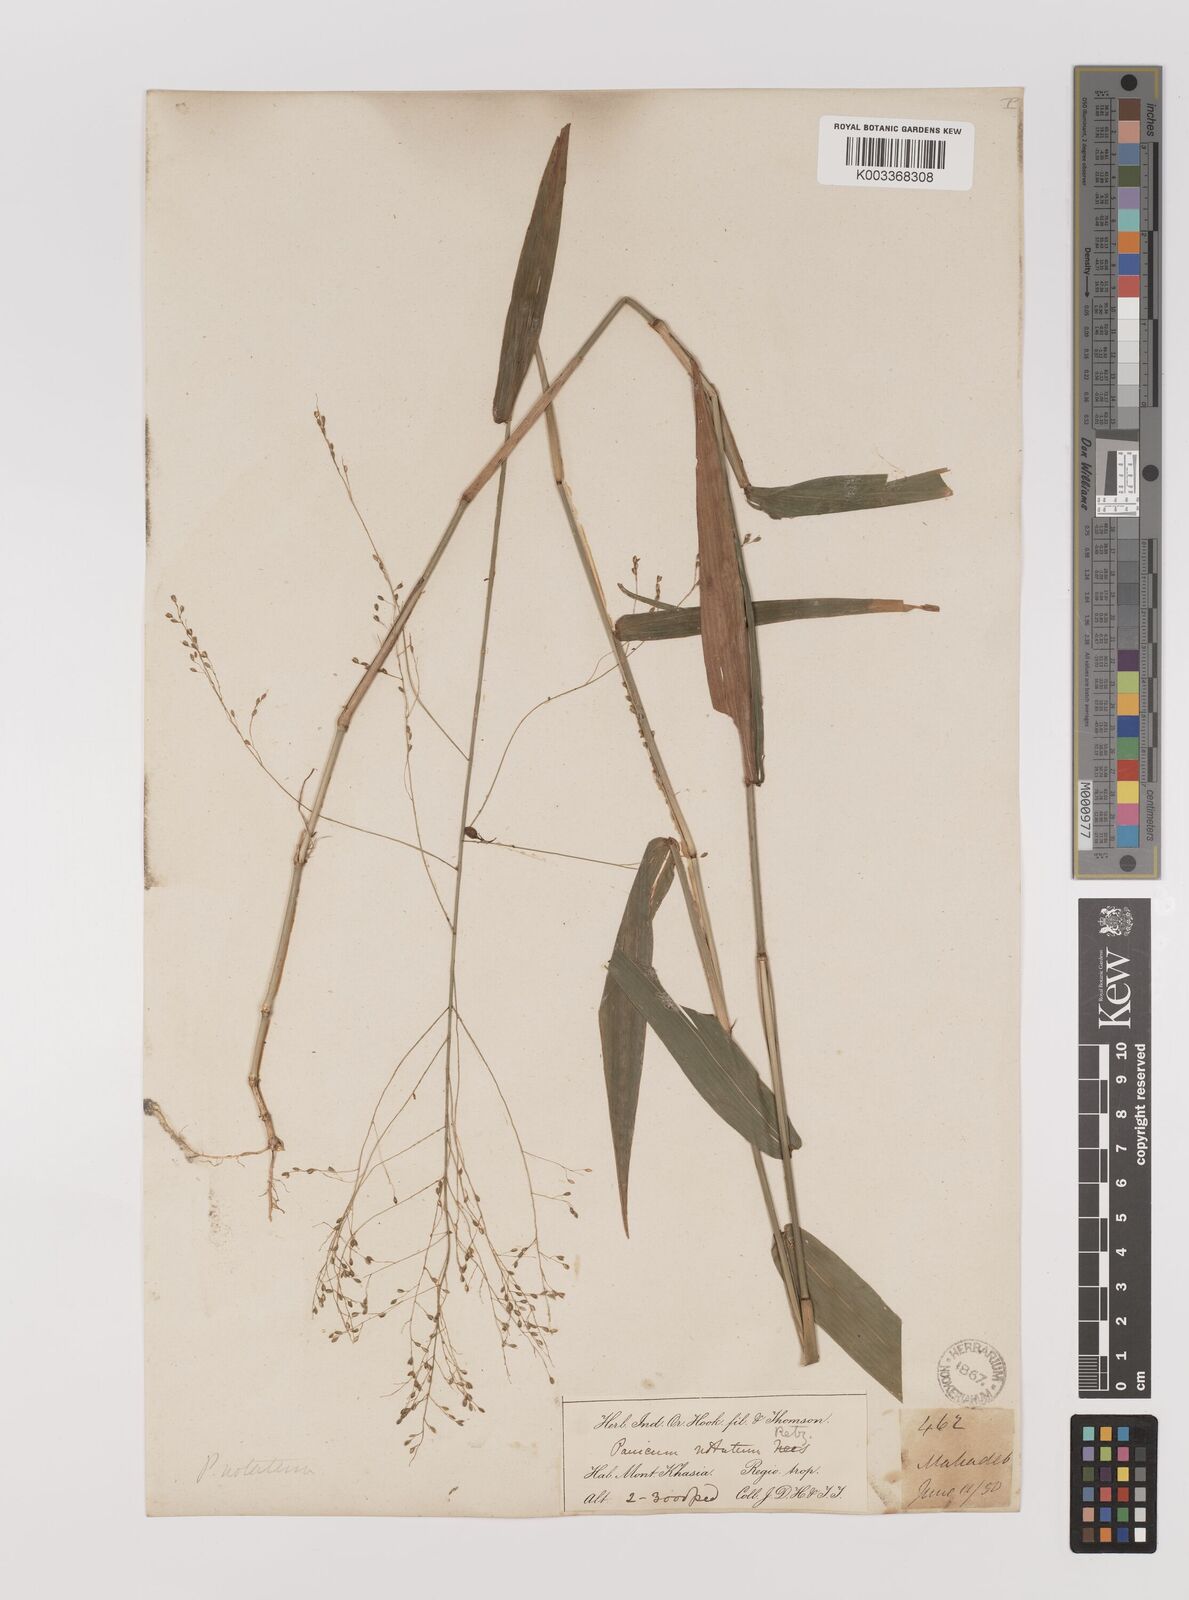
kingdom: Plantae
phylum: Tracheophyta
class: Liliopsida
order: Poales
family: Poaceae
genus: Panicum
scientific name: Panicum notatum
